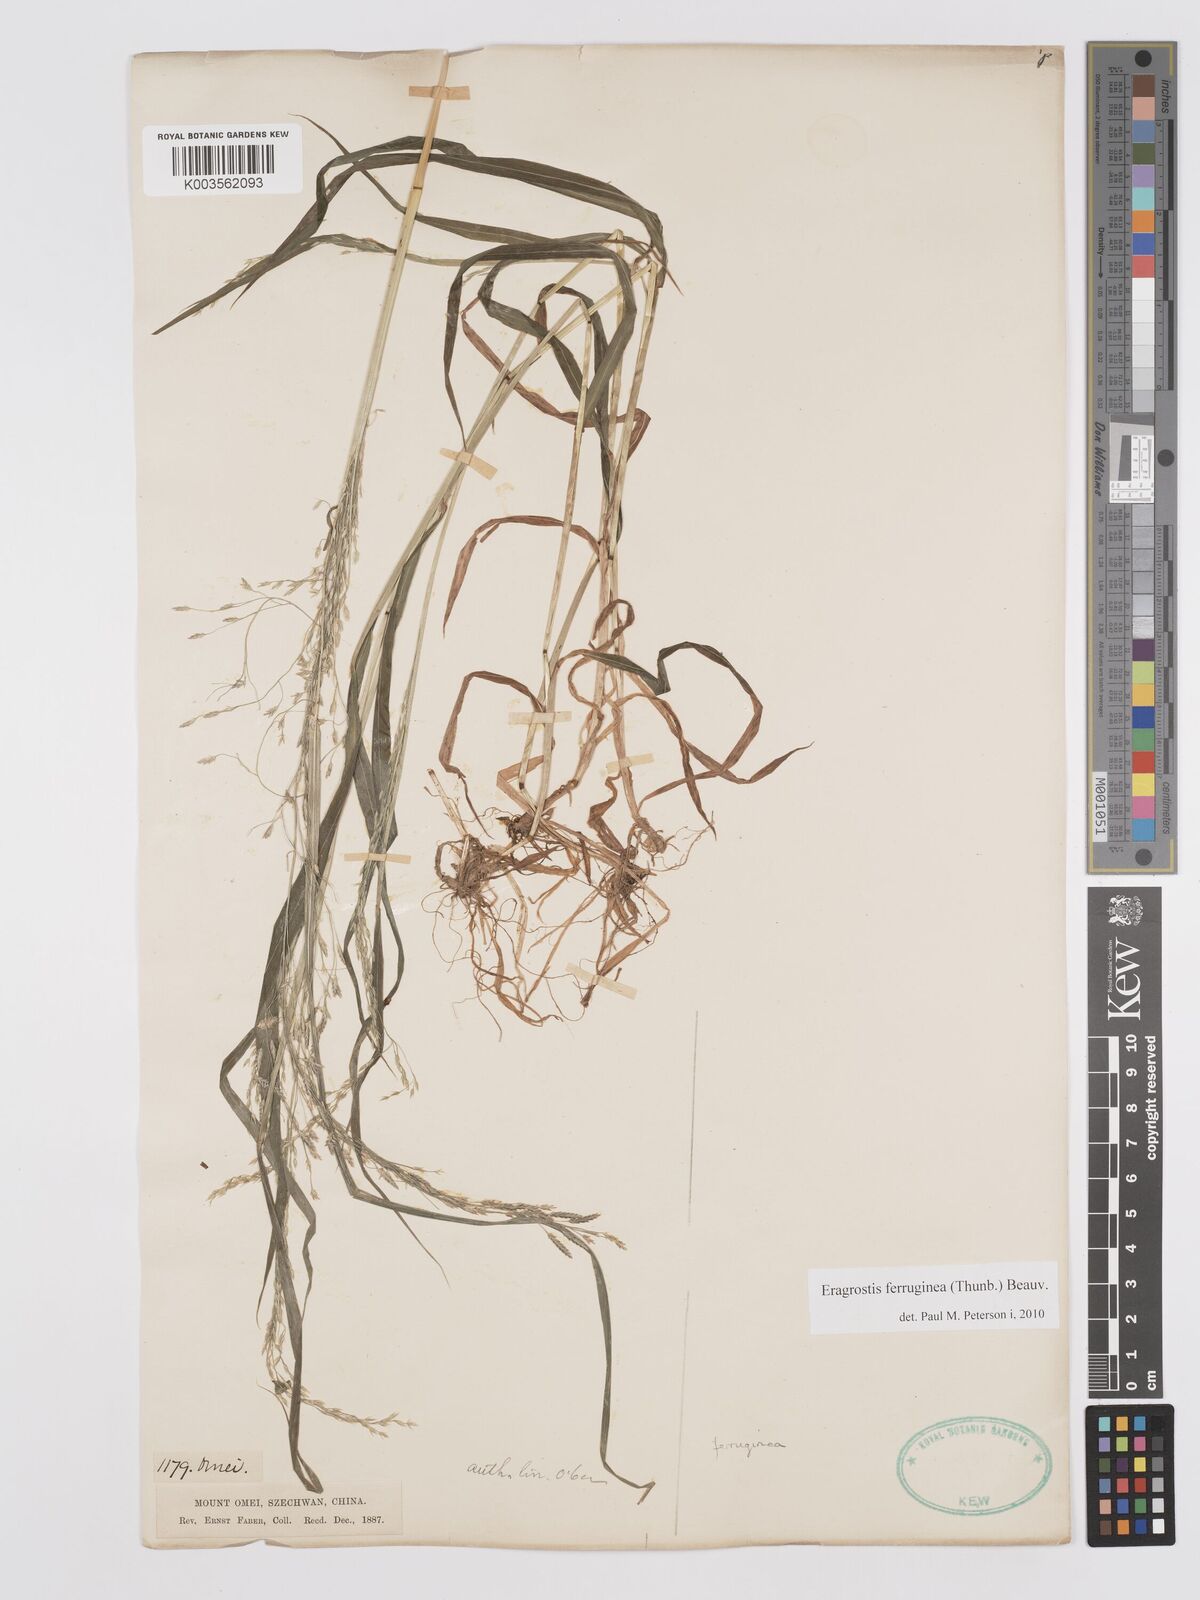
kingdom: Plantae
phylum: Tracheophyta
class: Liliopsida
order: Poales
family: Poaceae
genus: Eragrostis
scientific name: Eragrostis ferruginea
